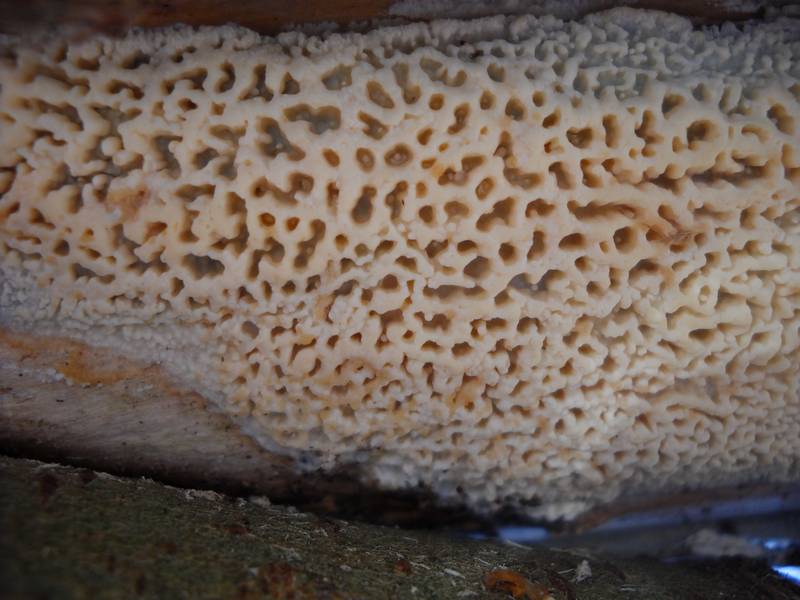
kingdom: Fungi
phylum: Basidiomycota
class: Agaricomycetes
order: Polyporales
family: Fomitopsidaceae
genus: Antrodia
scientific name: Antrodia macra
